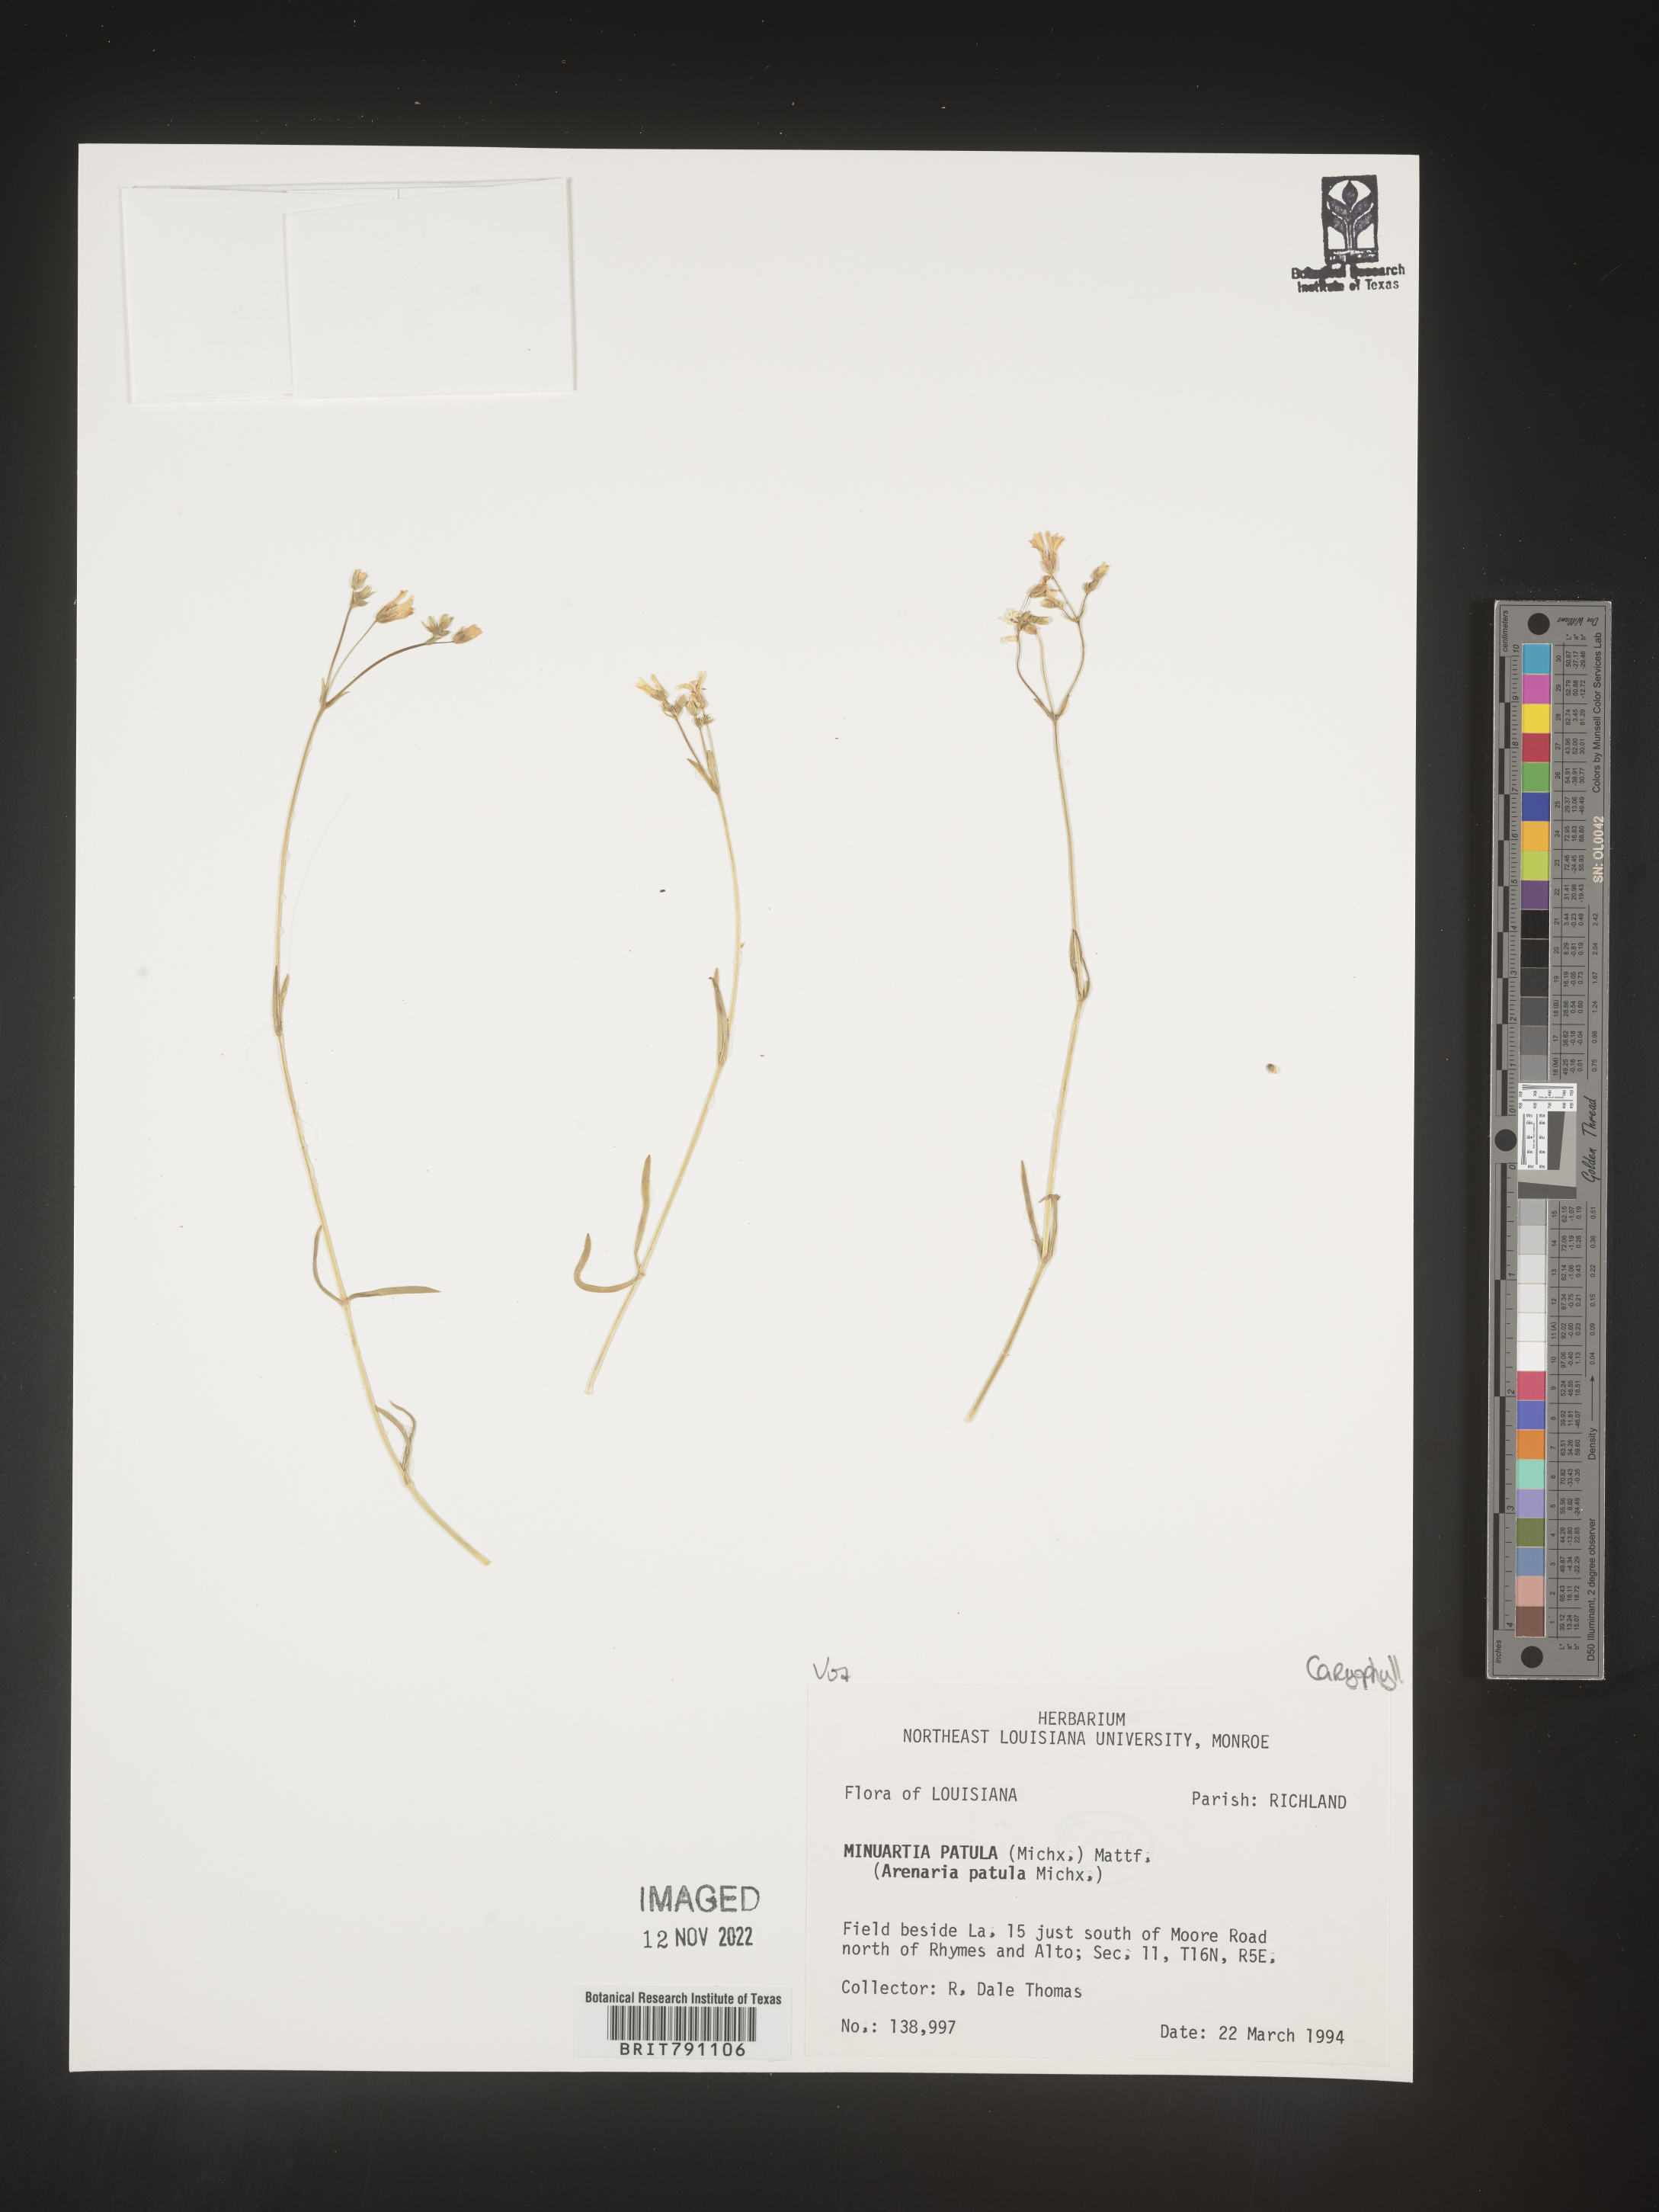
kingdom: Plantae
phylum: Tracheophyta
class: Magnoliopsida
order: Caryophyllales
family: Caryophyllaceae
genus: Mononeuria
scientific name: Mononeuria patula
